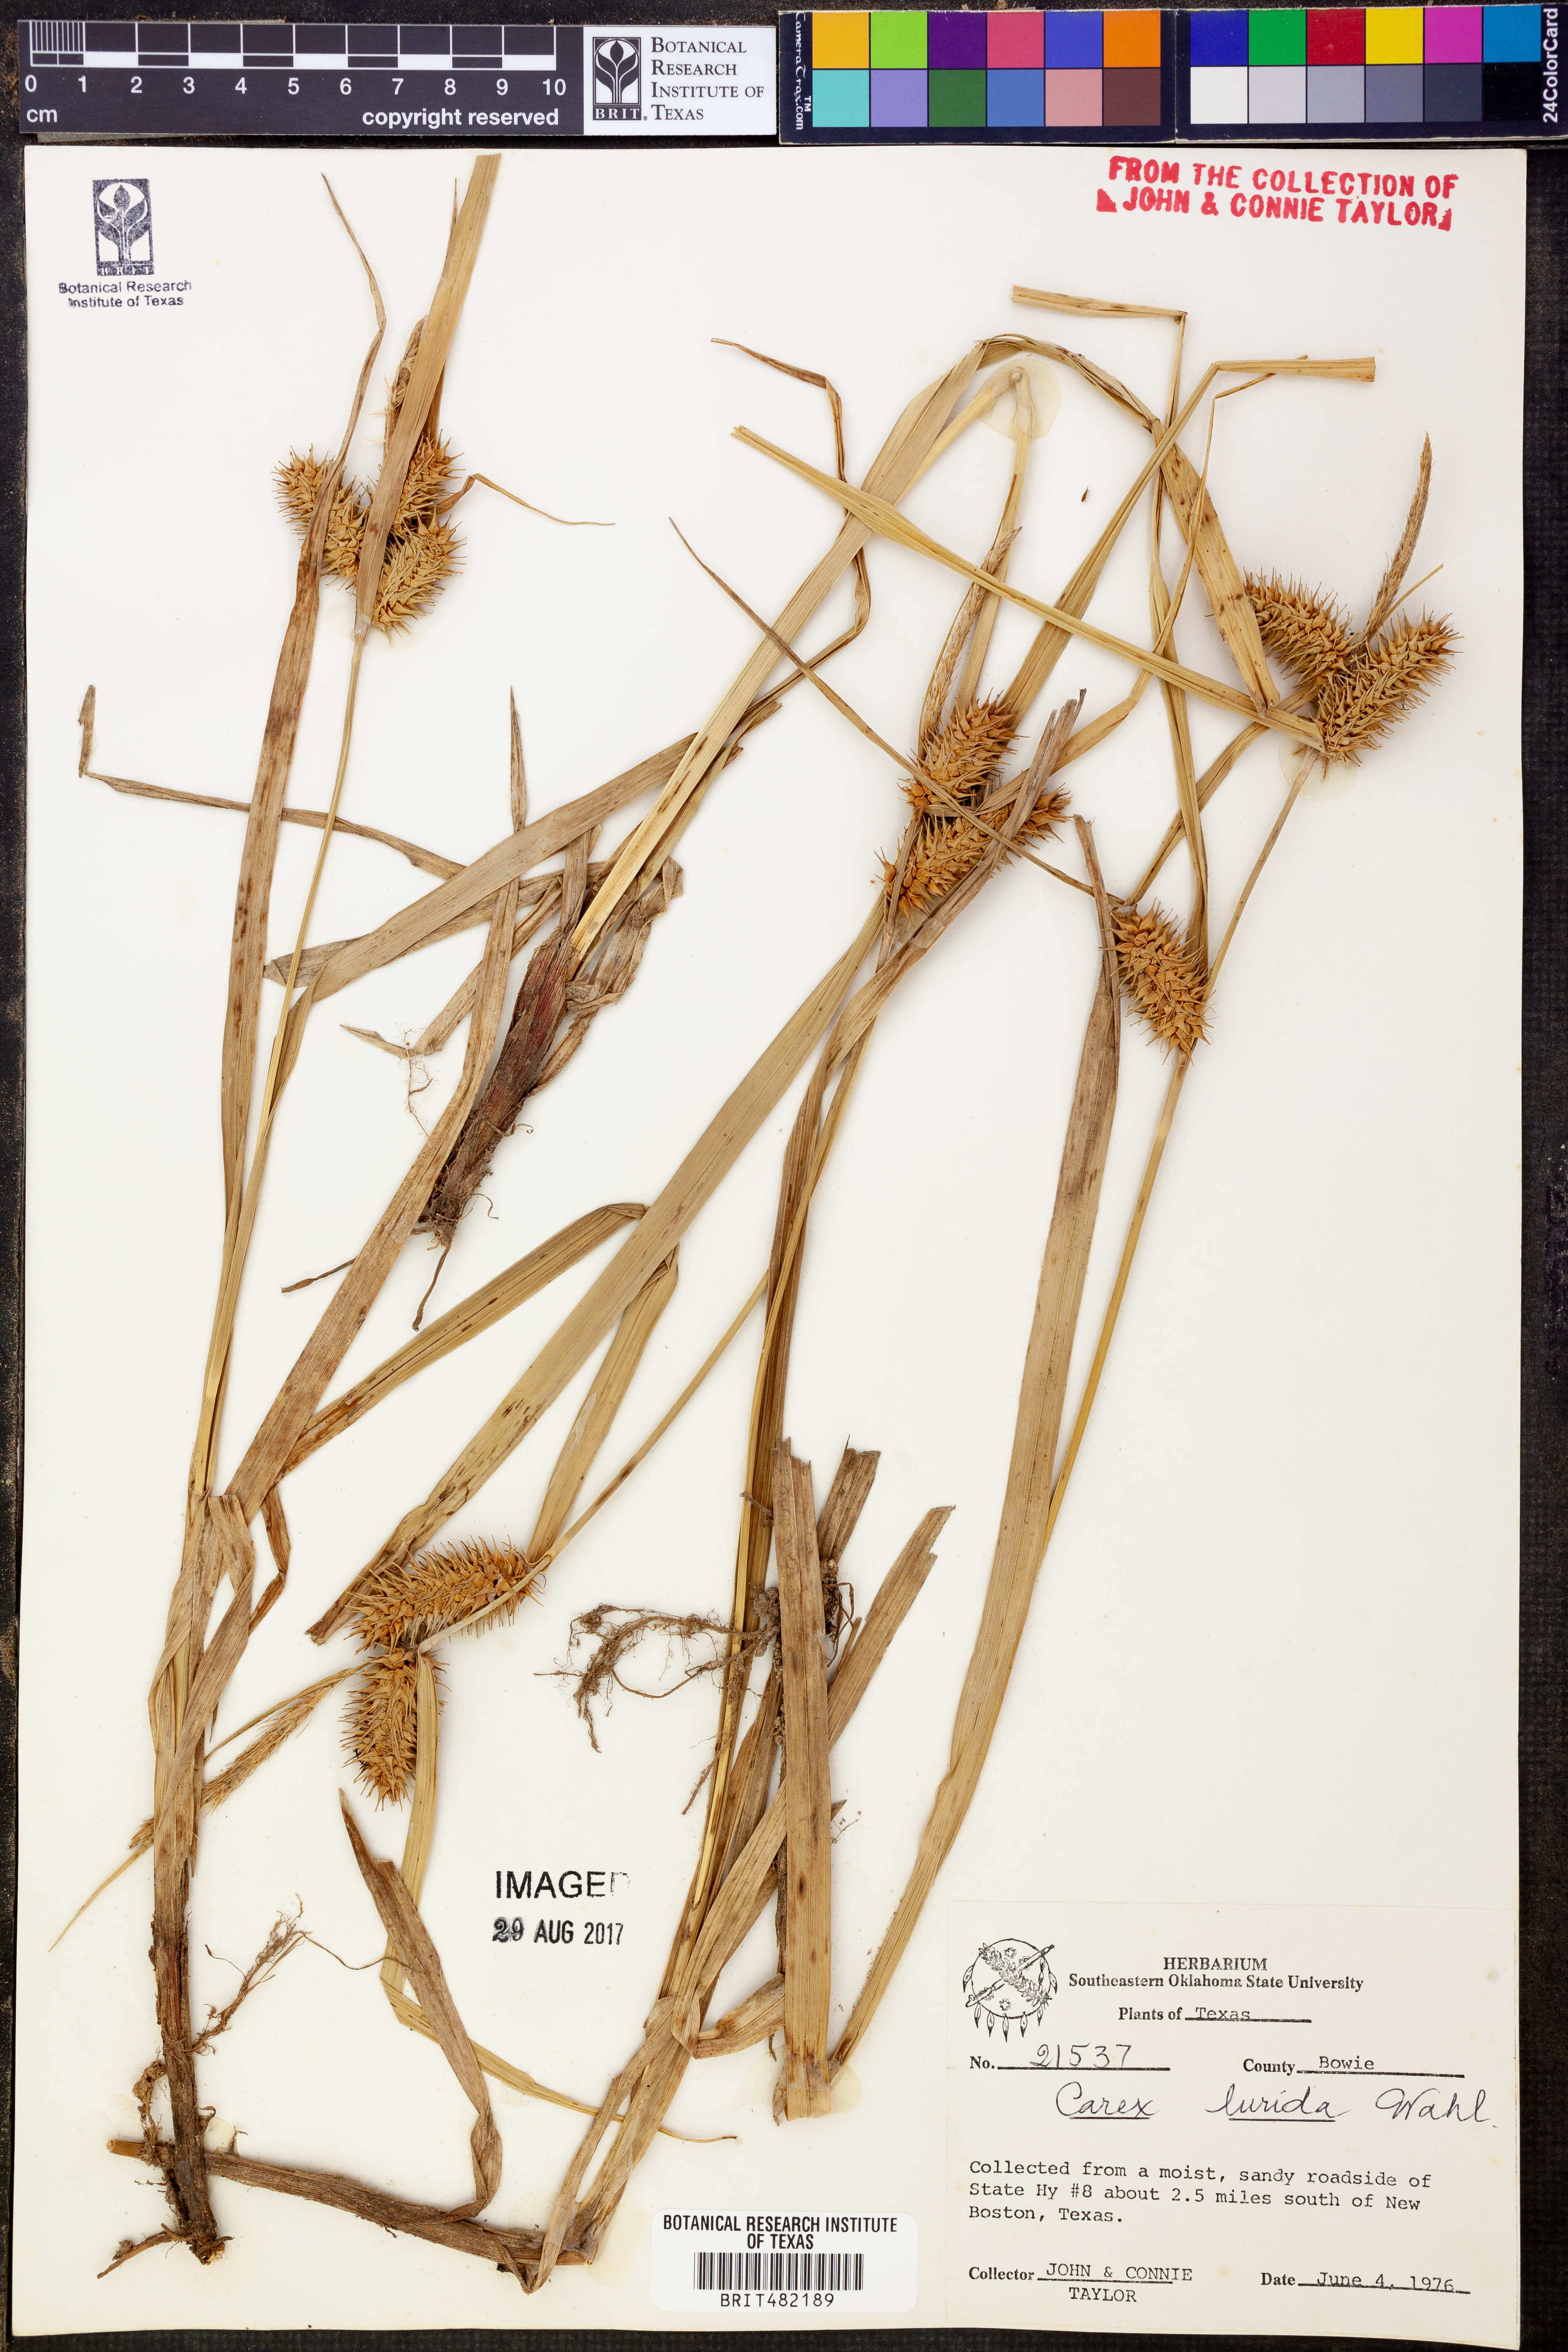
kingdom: Plantae
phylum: Tracheophyta
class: Liliopsida
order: Poales
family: Cyperaceae
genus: Carex
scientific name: Carex lurida
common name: Sallow sedge
